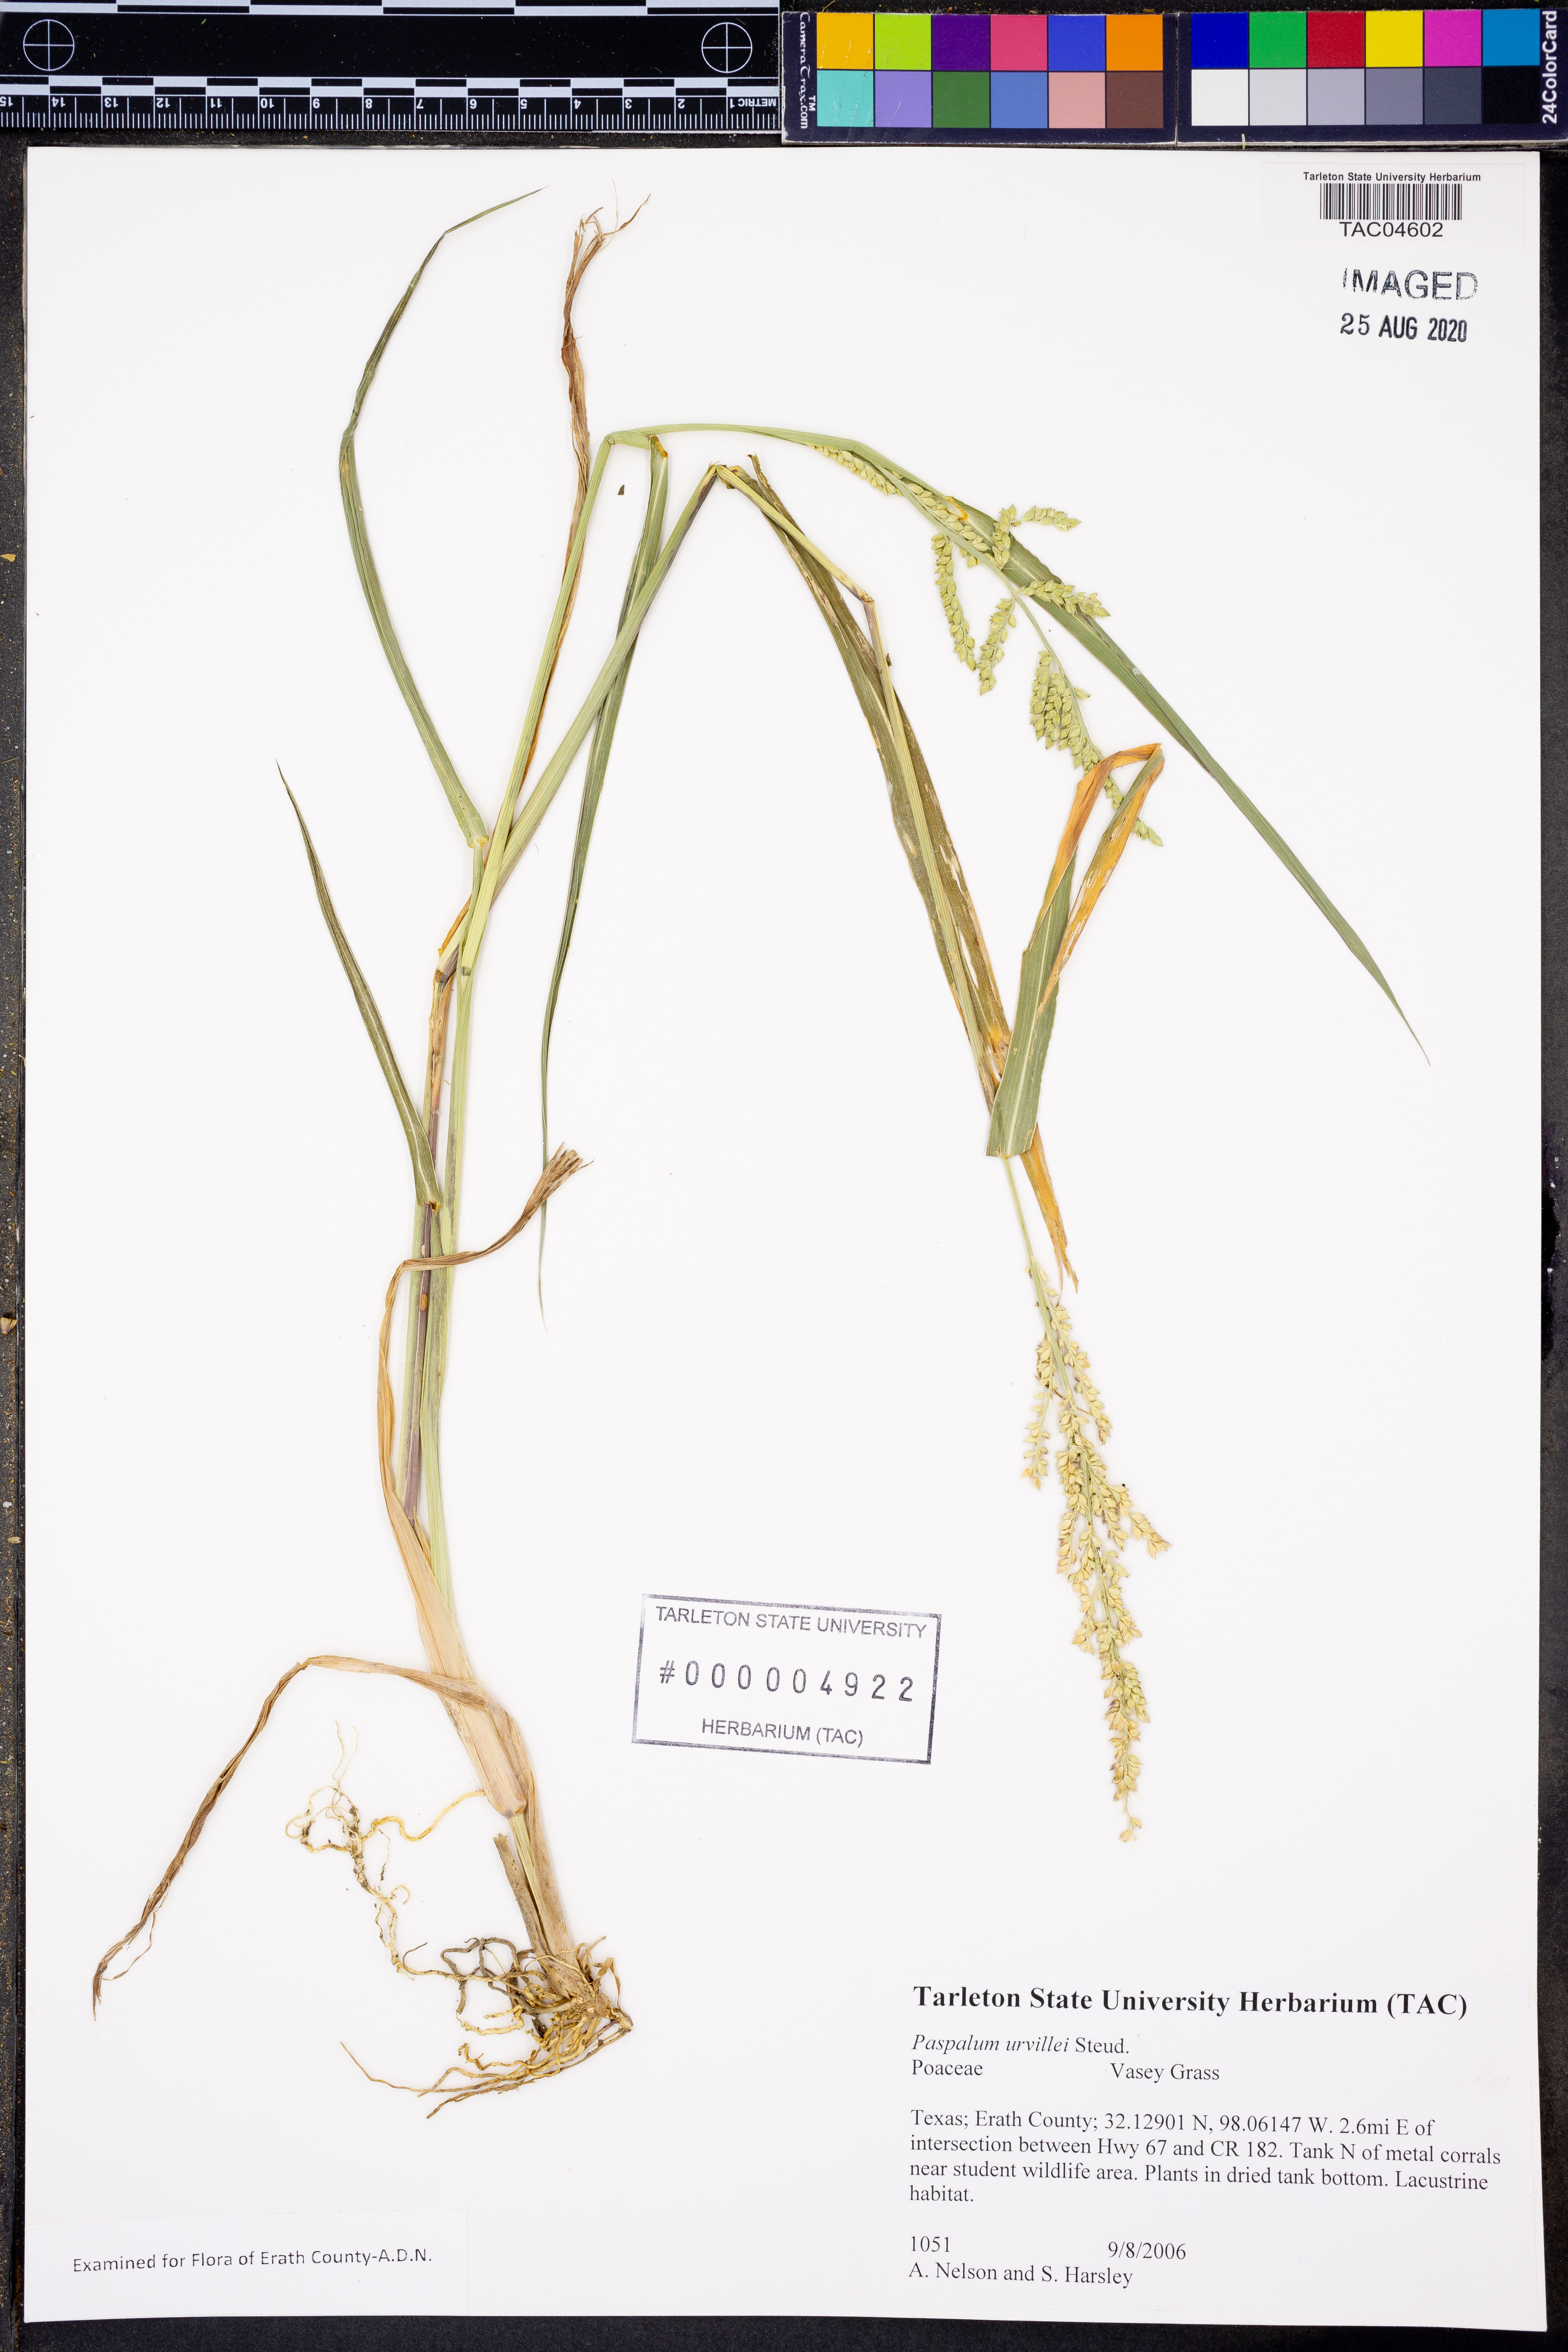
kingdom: Plantae
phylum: Tracheophyta
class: Liliopsida
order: Poales
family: Poaceae
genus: Paspalum
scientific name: Paspalum urvillei
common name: Vasey's grass
